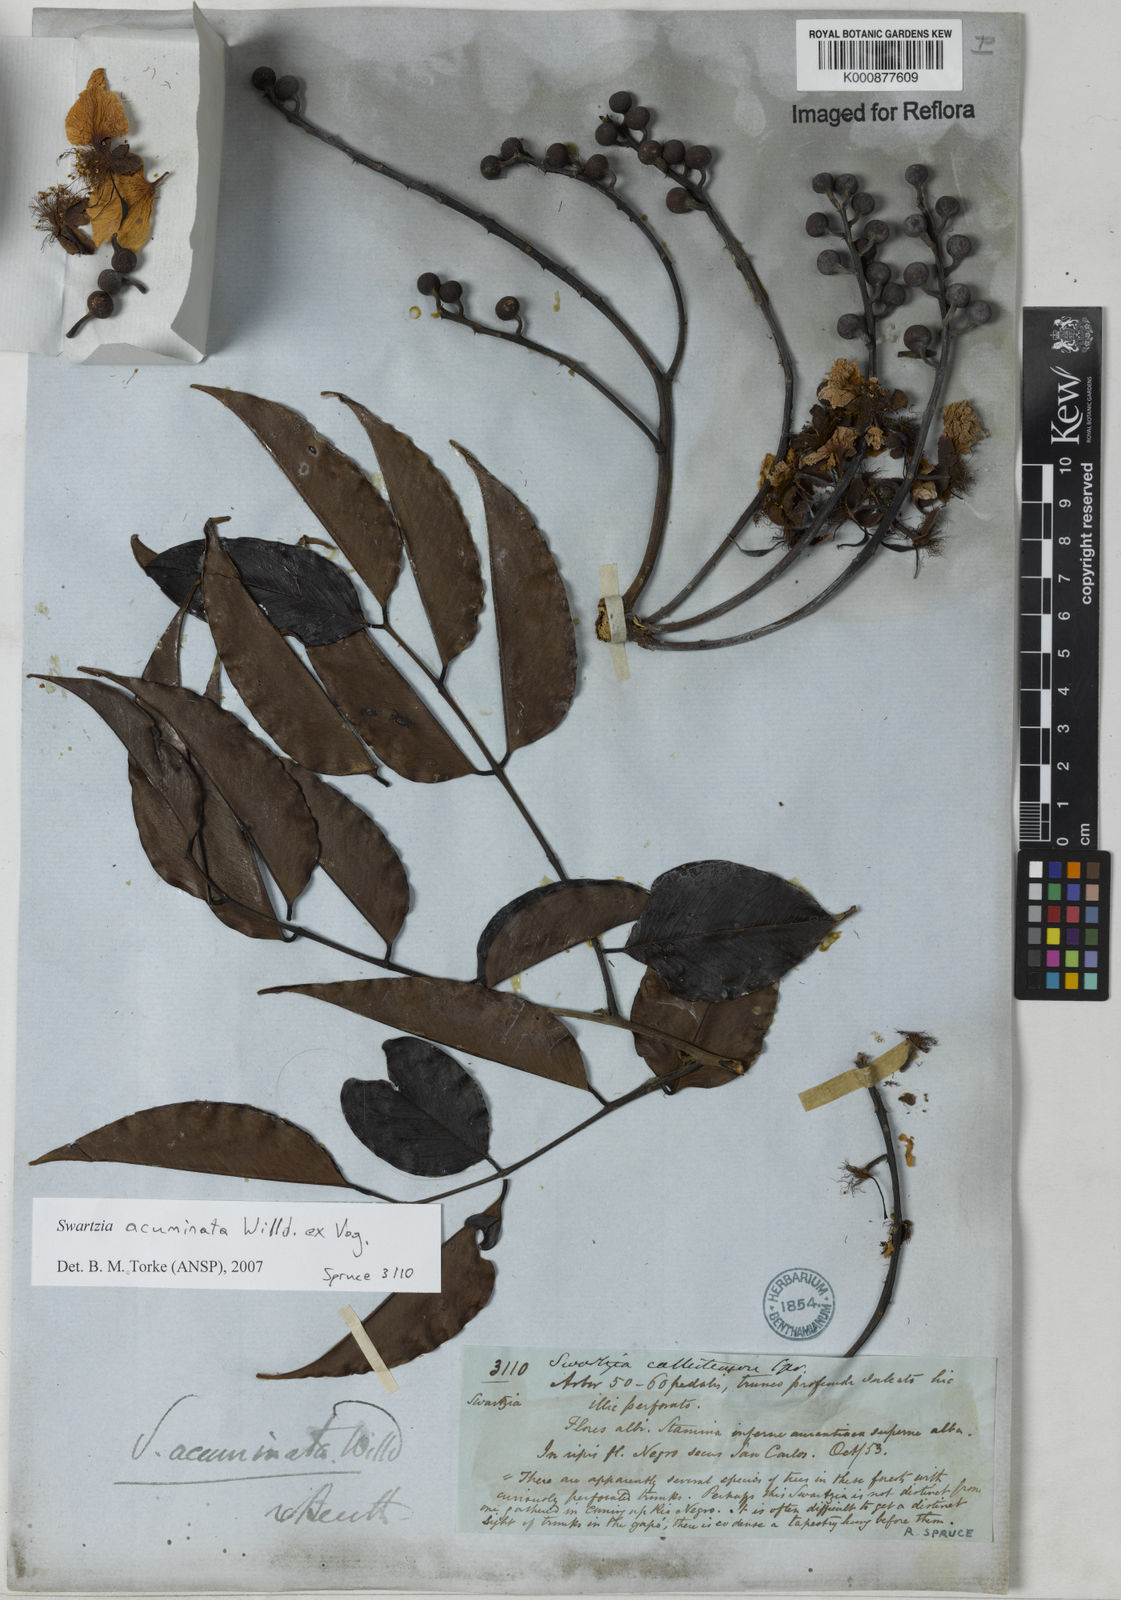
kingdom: Plantae
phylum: Tracheophyta
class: Magnoliopsida
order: Fabales
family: Fabaceae
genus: Swartzia
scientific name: Swartzia acuminata
